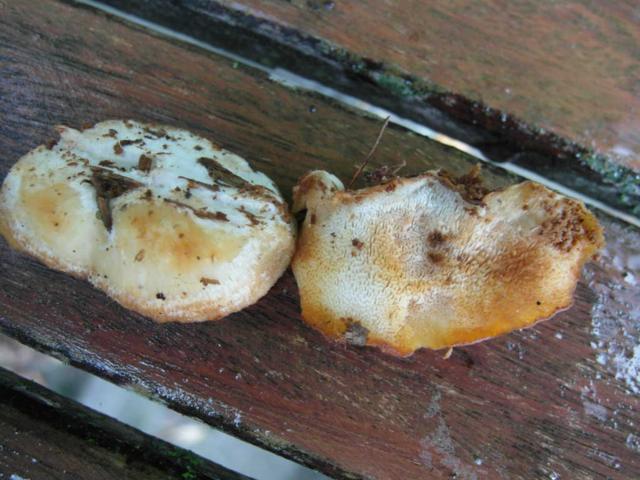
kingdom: Fungi
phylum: Basidiomycota
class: Agaricomycetes
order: Polyporales
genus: Fuscopostia
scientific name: Fuscopostia fragilis
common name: brunende kødporesvamp
